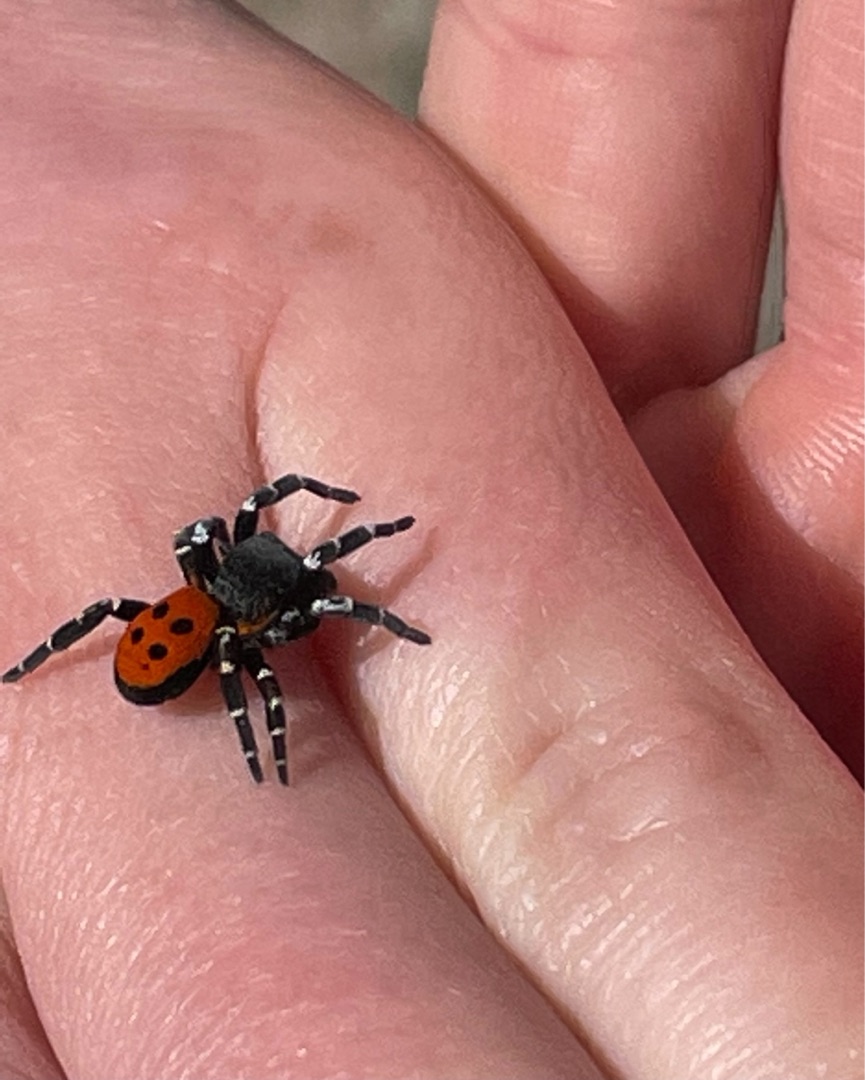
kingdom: Animalia
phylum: Arthropoda
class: Arachnida
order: Araneae
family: Eresidae
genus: Eresus
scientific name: Eresus sandaliatus
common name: Mariehøneedderkop
